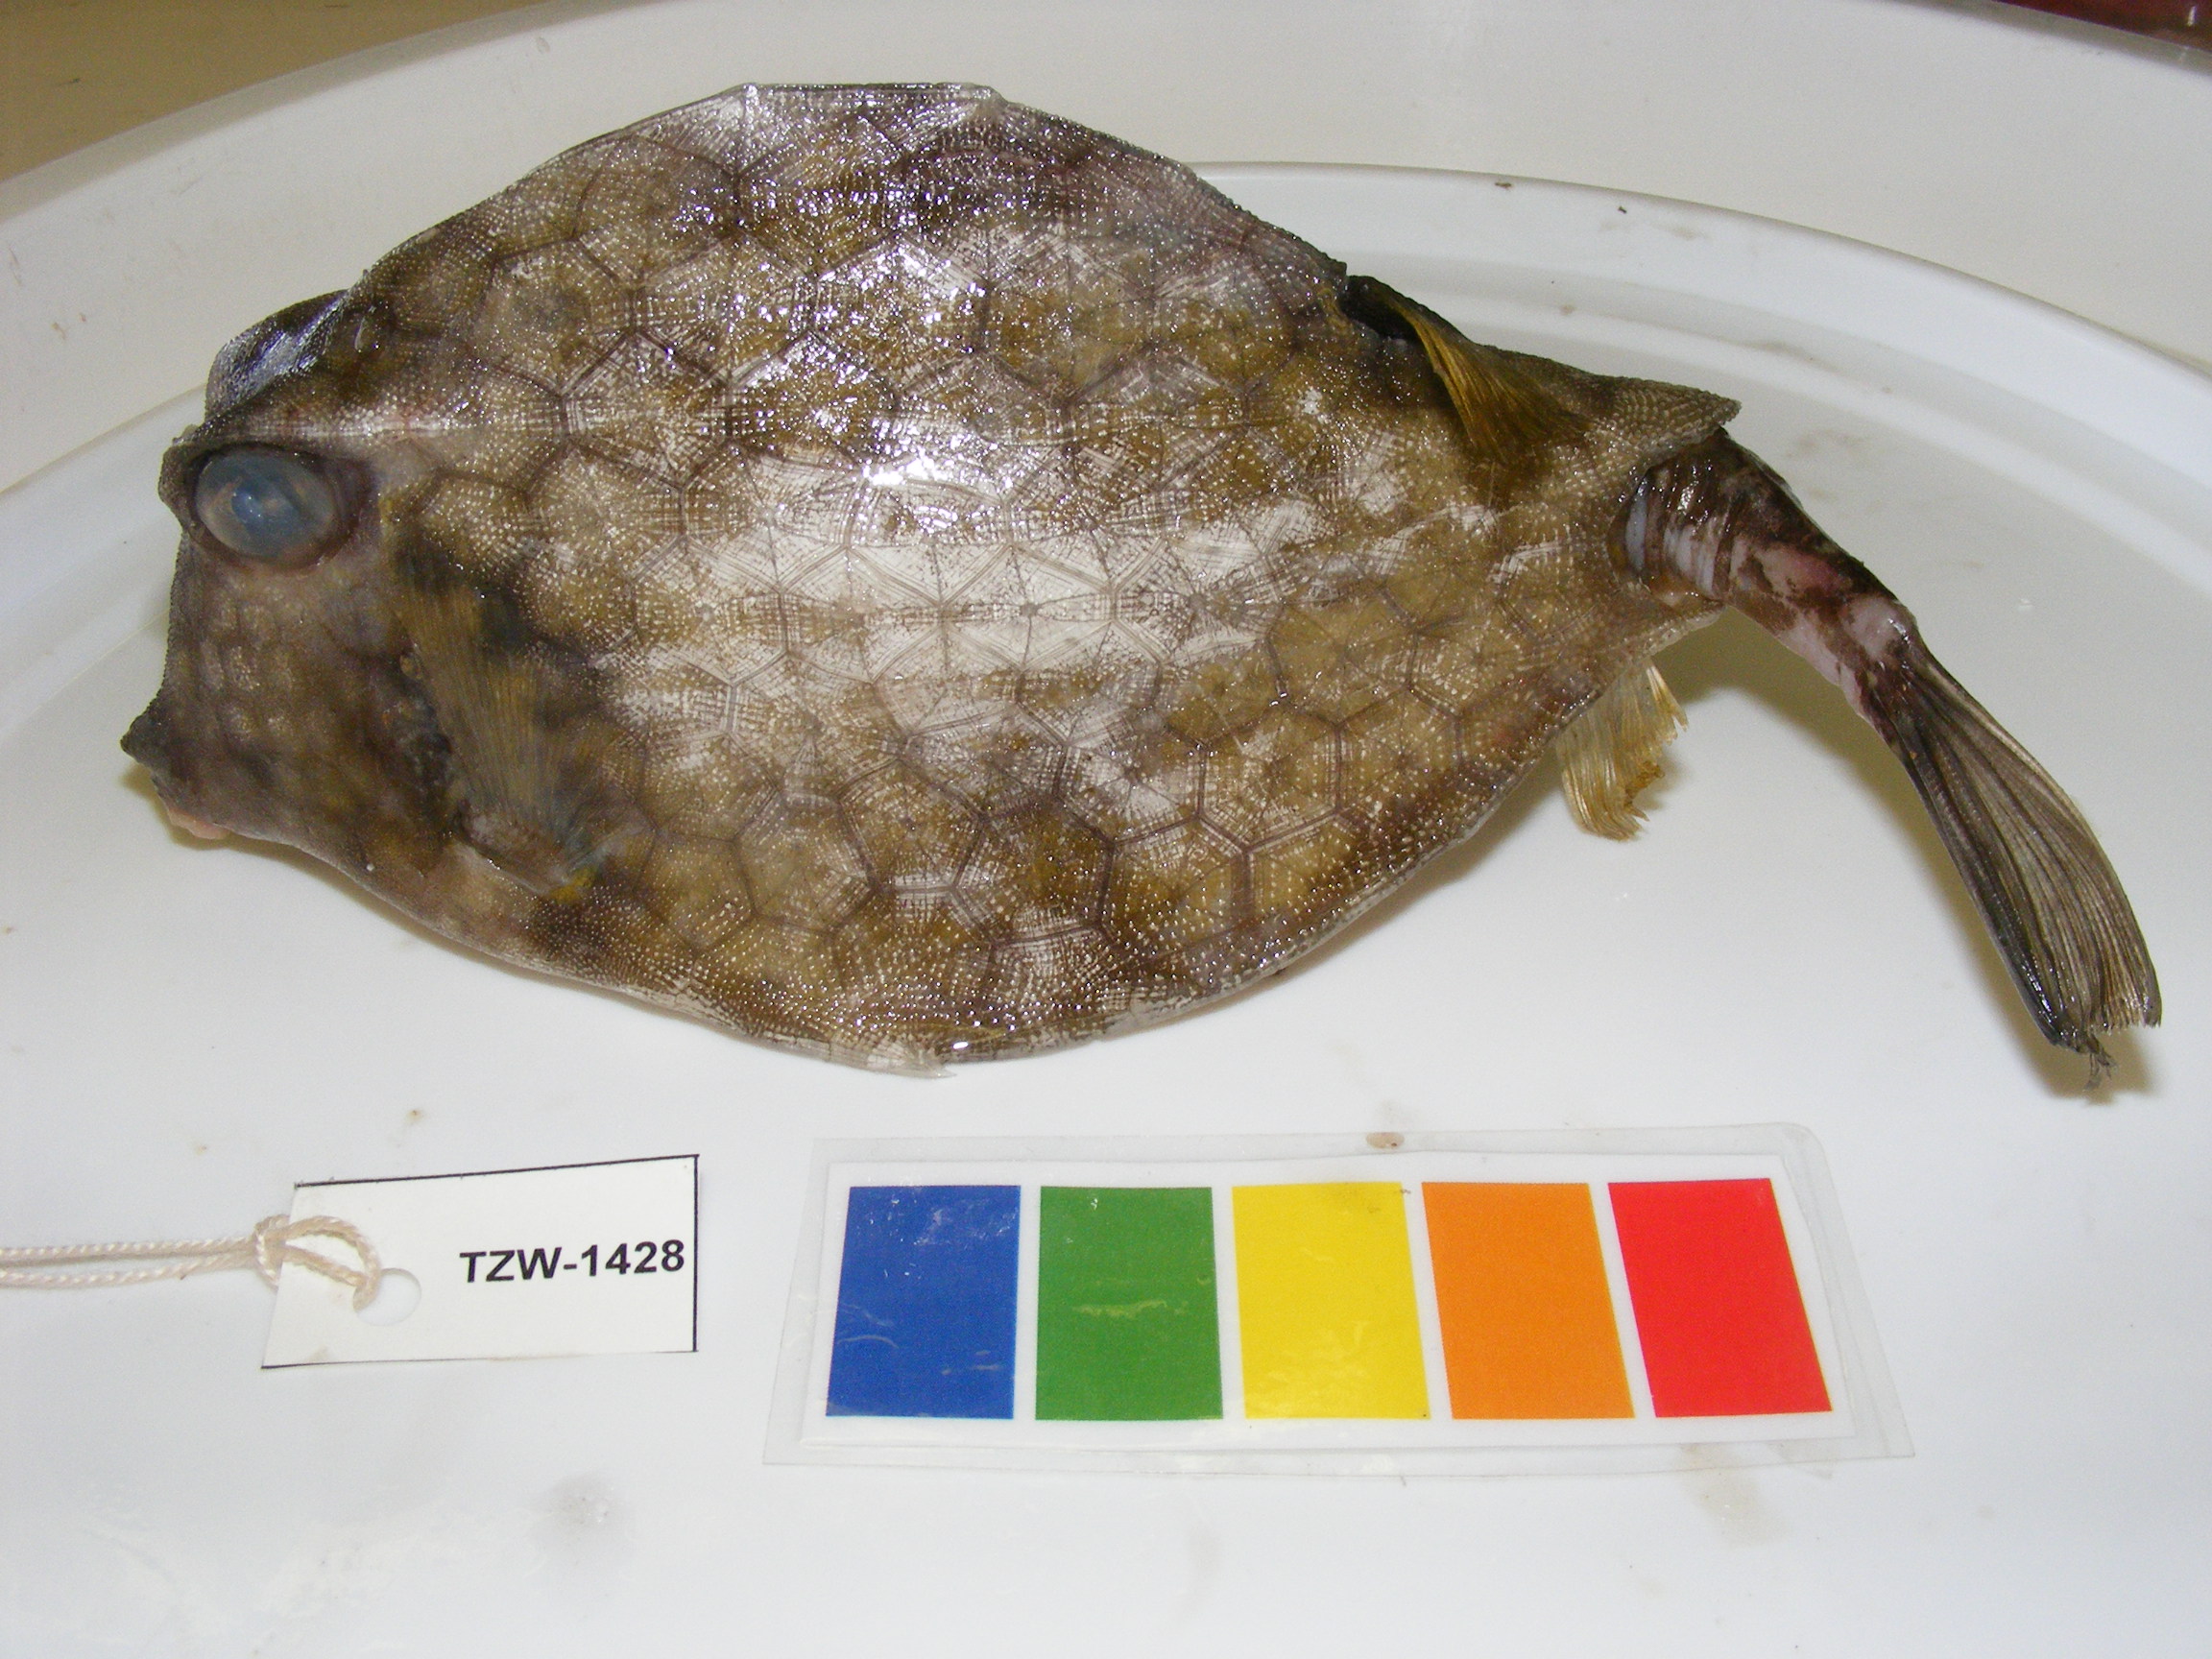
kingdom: Animalia
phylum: Chordata
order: Tetraodontiformes
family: Ostraciidae
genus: Tetrosomus
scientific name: Tetrosomus gibbosus
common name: Humpback turretfish
